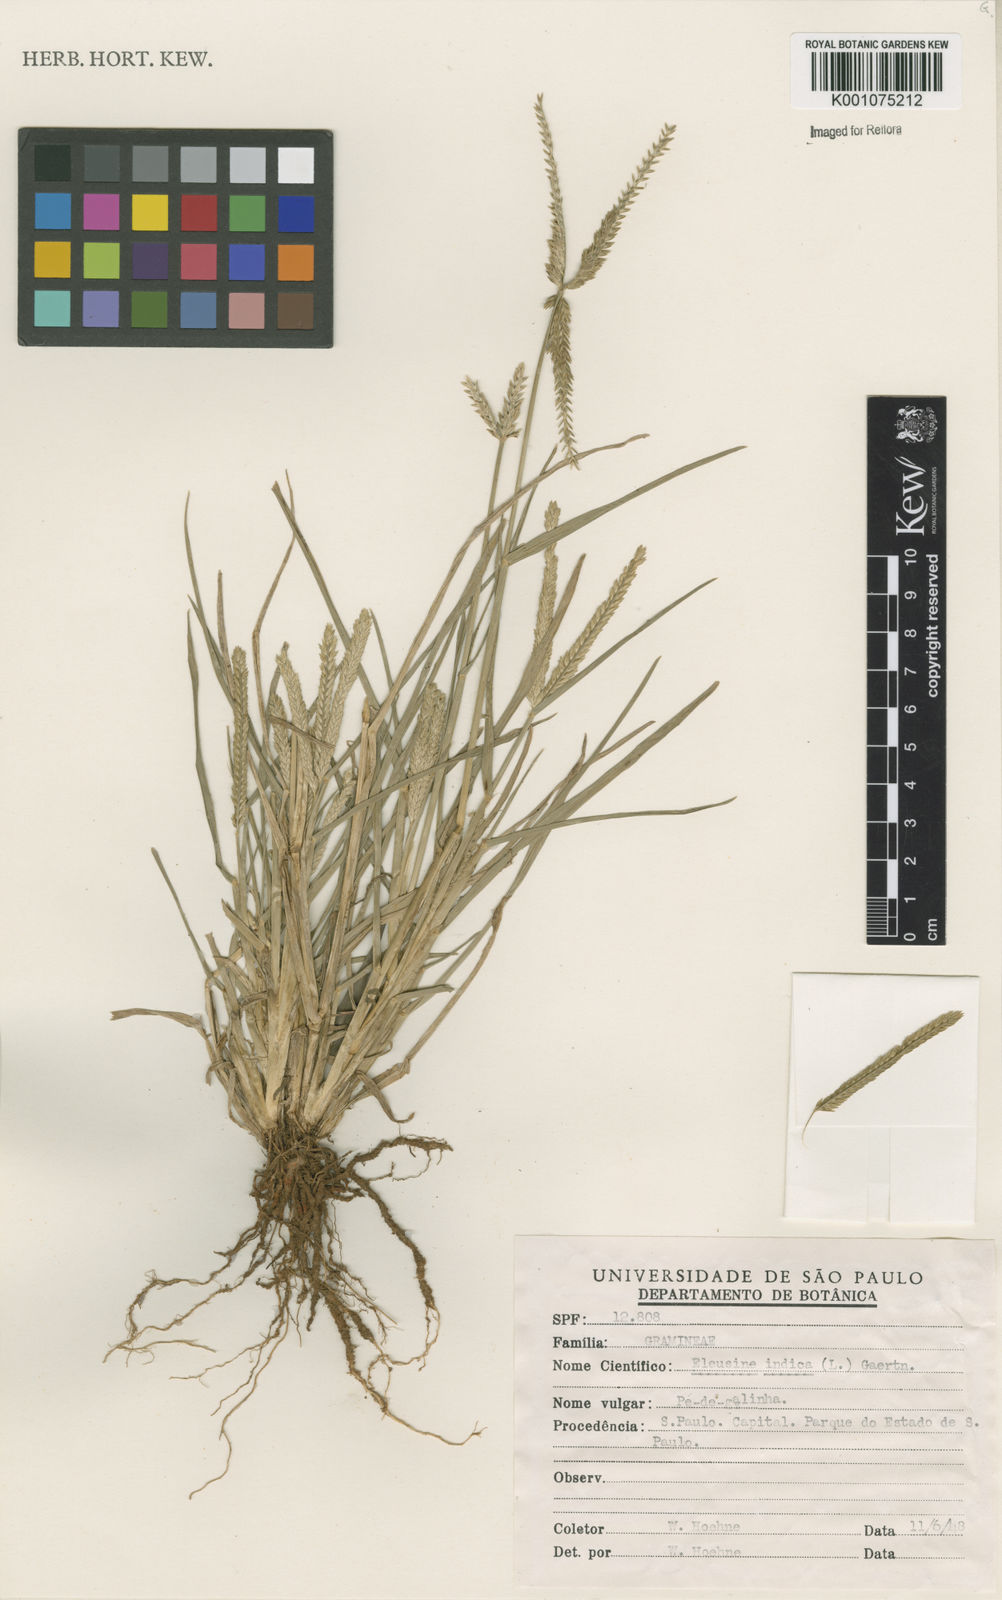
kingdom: Plantae
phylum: Tracheophyta
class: Liliopsida
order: Poales
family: Poaceae
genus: Eleusine
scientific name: Eleusine indica
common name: Yard-grass
